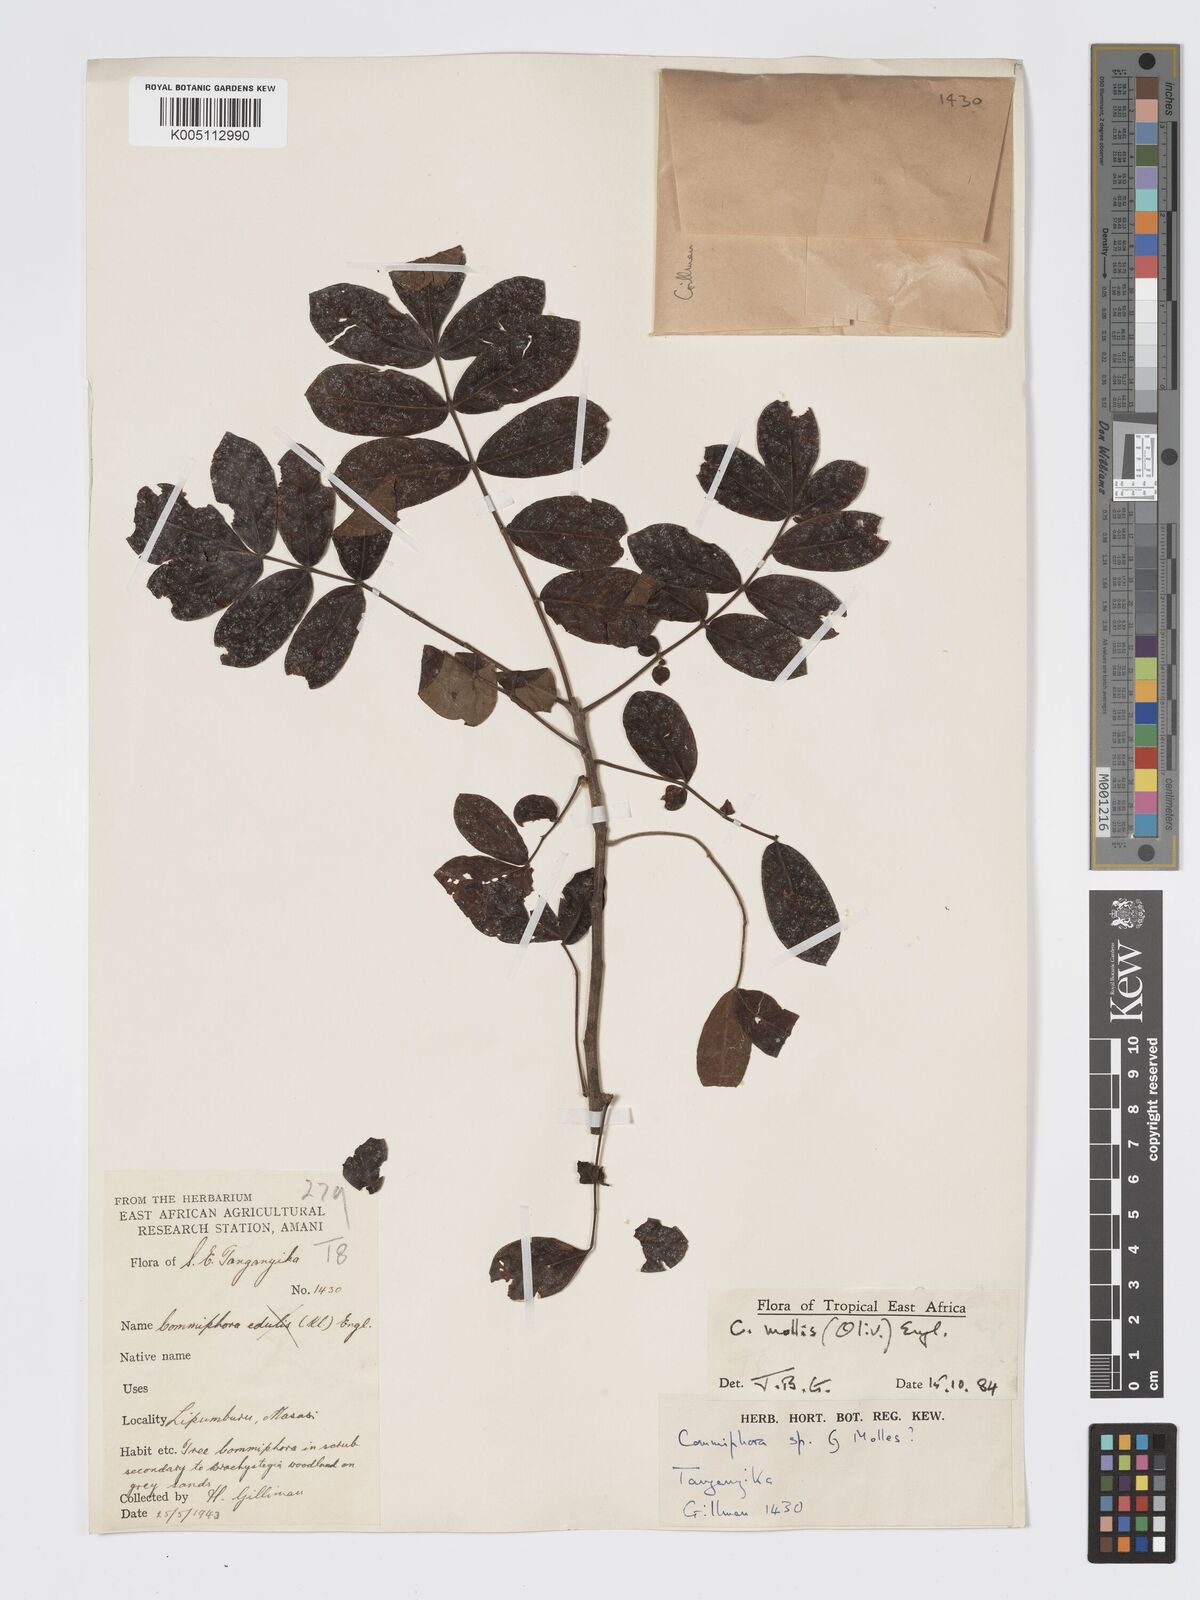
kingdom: Plantae
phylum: Tracheophyta
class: Magnoliopsida
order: Sapindales
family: Burseraceae
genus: Commiphora
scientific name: Commiphora
